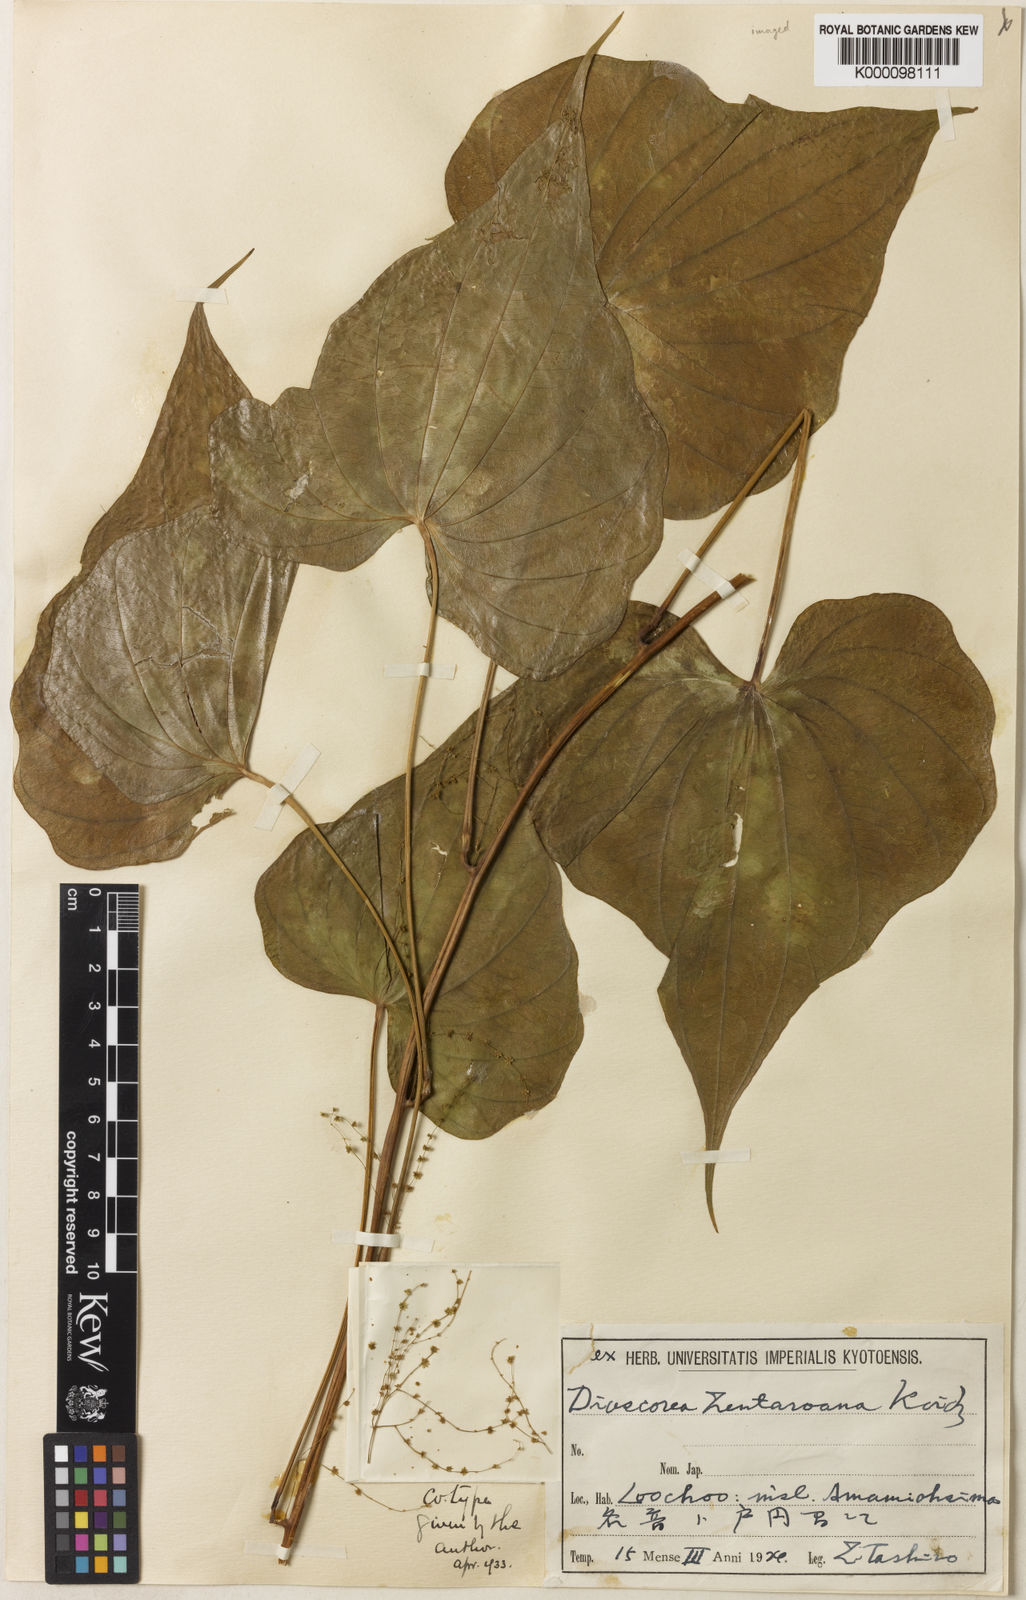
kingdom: Plantae
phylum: Tracheophyta
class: Liliopsida
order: Dioscoreales
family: Dioscoreaceae
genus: Dioscorea
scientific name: Dioscorea zentaroana
